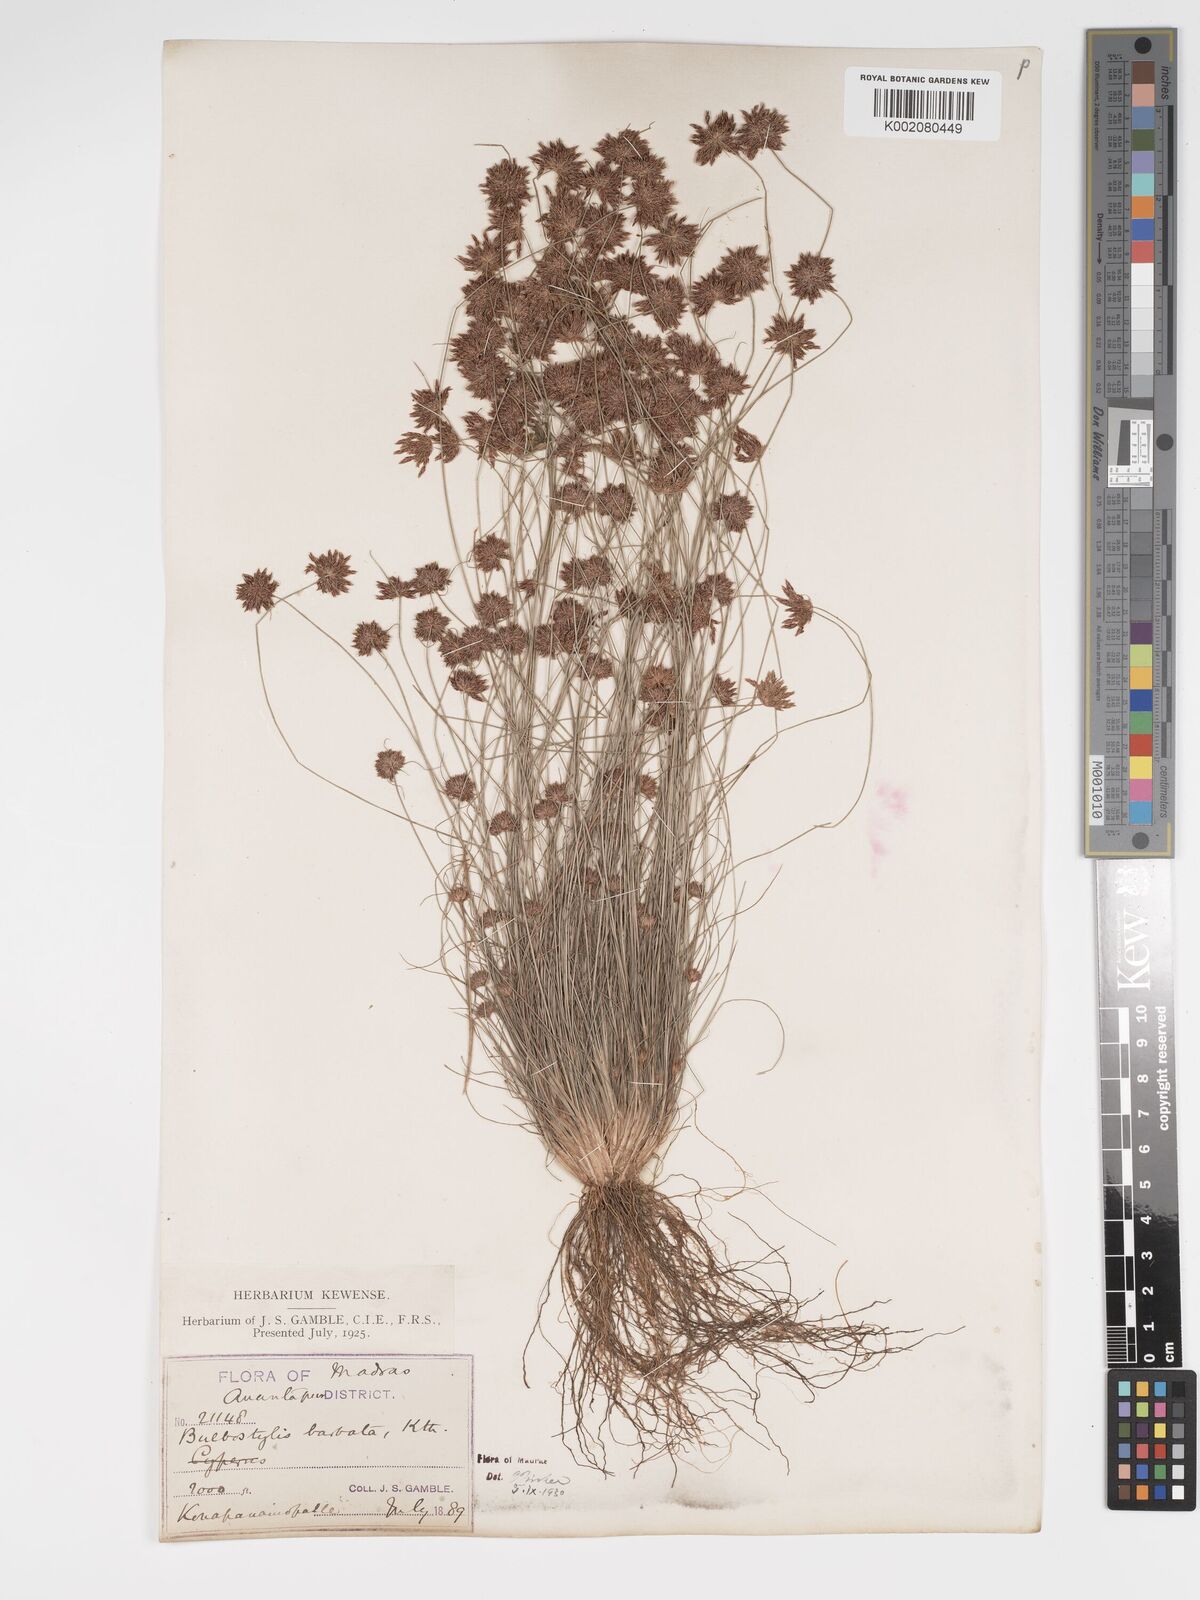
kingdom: Plantae
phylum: Tracheophyta
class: Liliopsida
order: Poales
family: Cyperaceae
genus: Bulbostylis
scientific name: Bulbostylis barbata
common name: Watergrass
